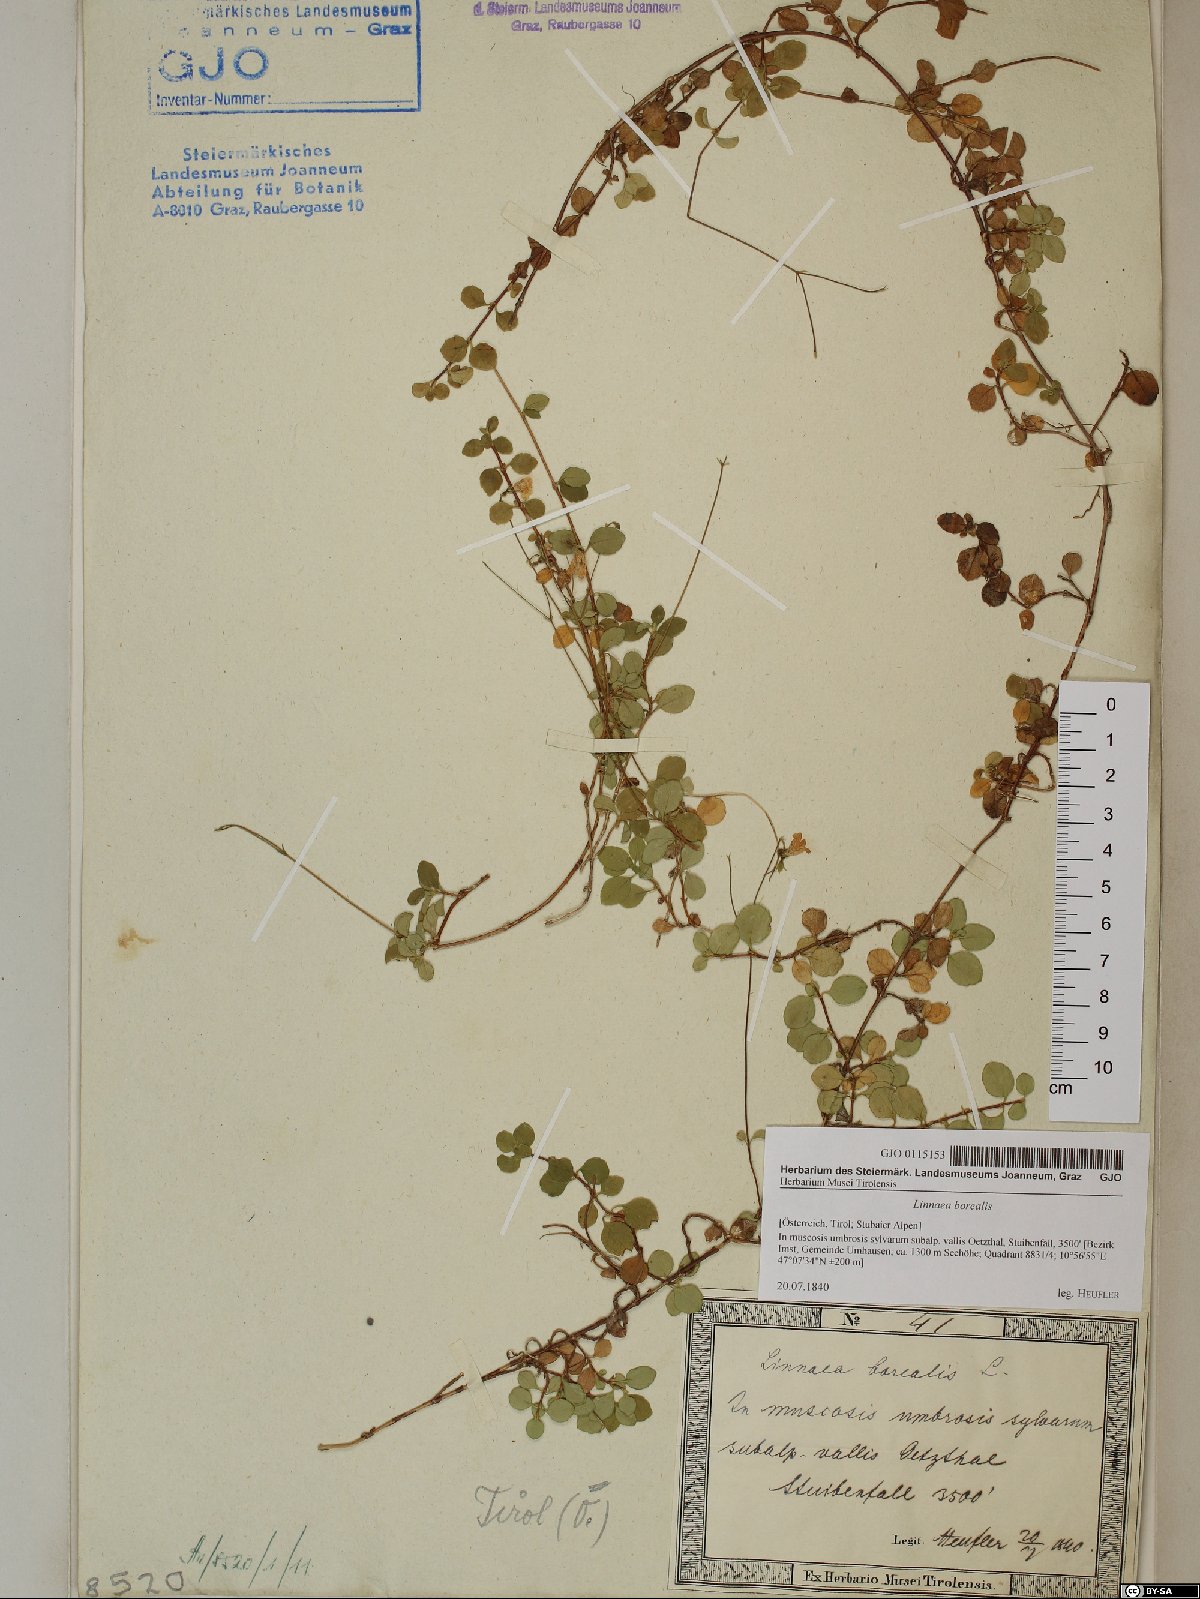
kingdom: Plantae
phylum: Tracheophyta
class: Magnoliopsida
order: Dipsacales
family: Caprifoliaceae
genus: Linnaea
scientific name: Linnaea borealis
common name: Twinflower
